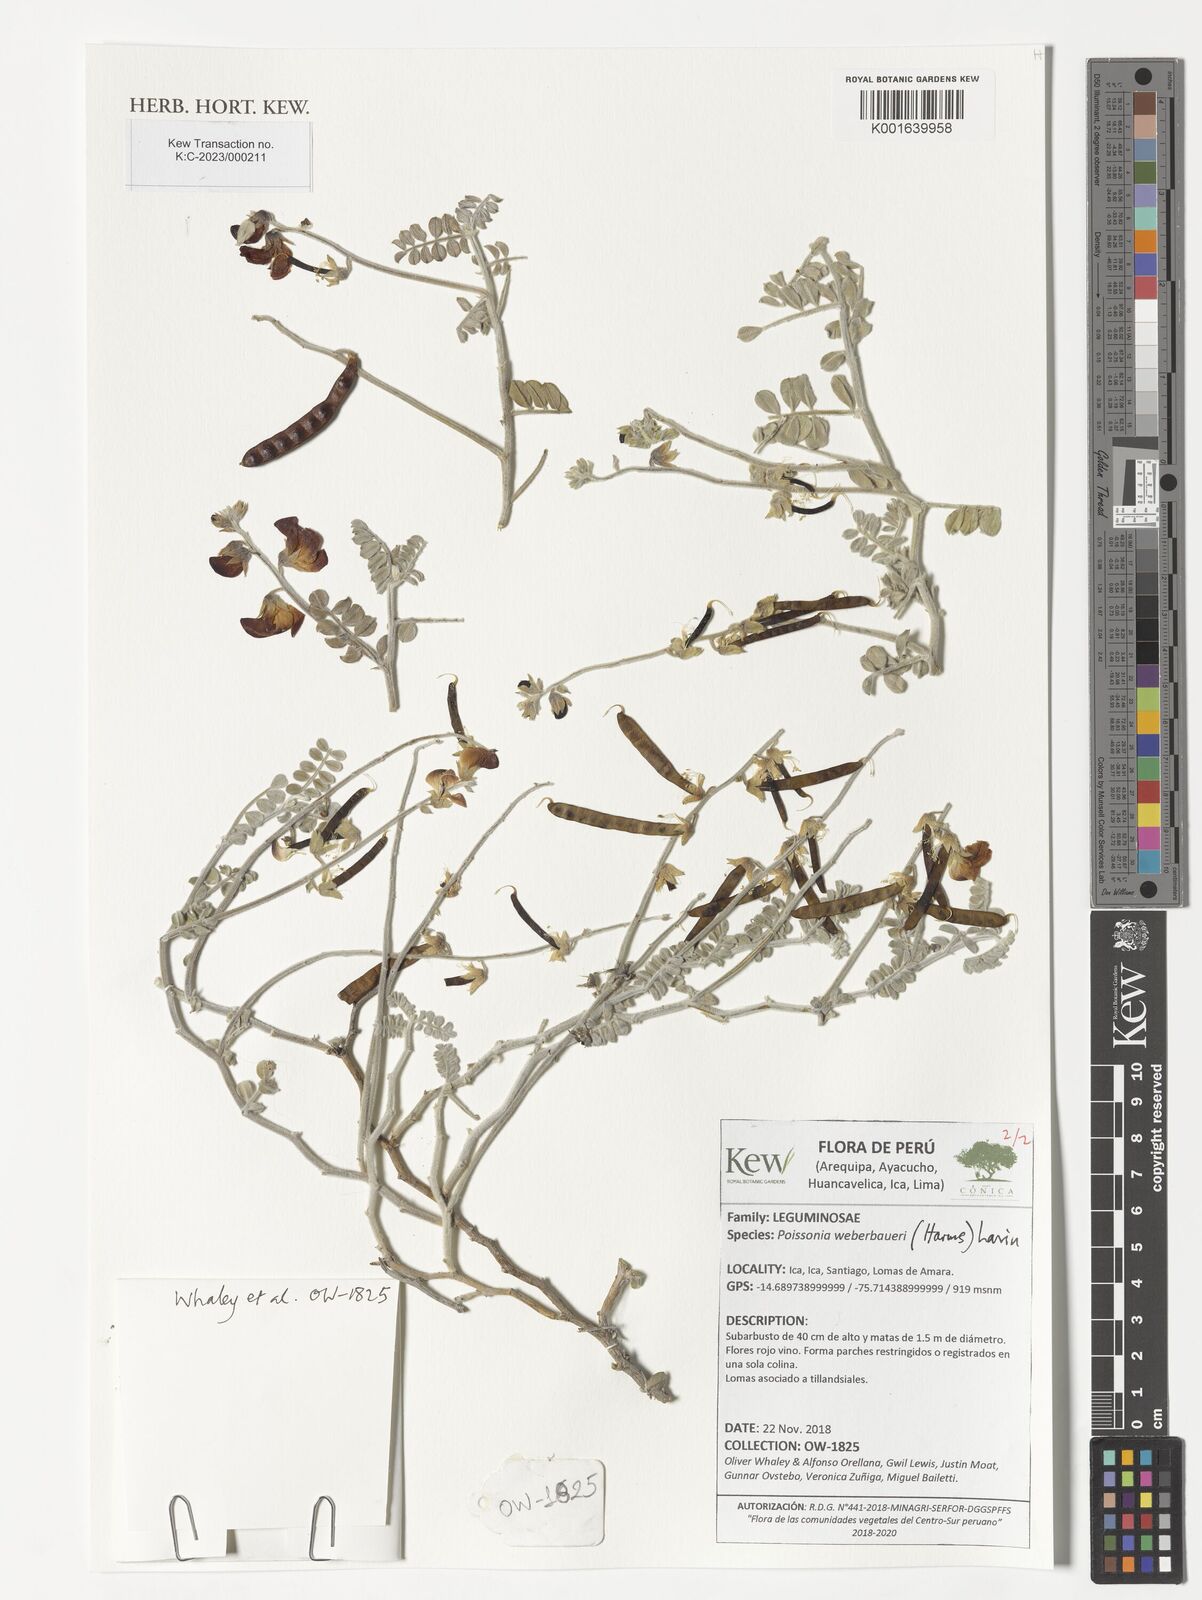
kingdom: Plantae
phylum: Tracheophyta
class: Magnoliopsida
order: Fabales
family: Fabaceae
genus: Poissonia
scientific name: Poissonia weberbaueri
